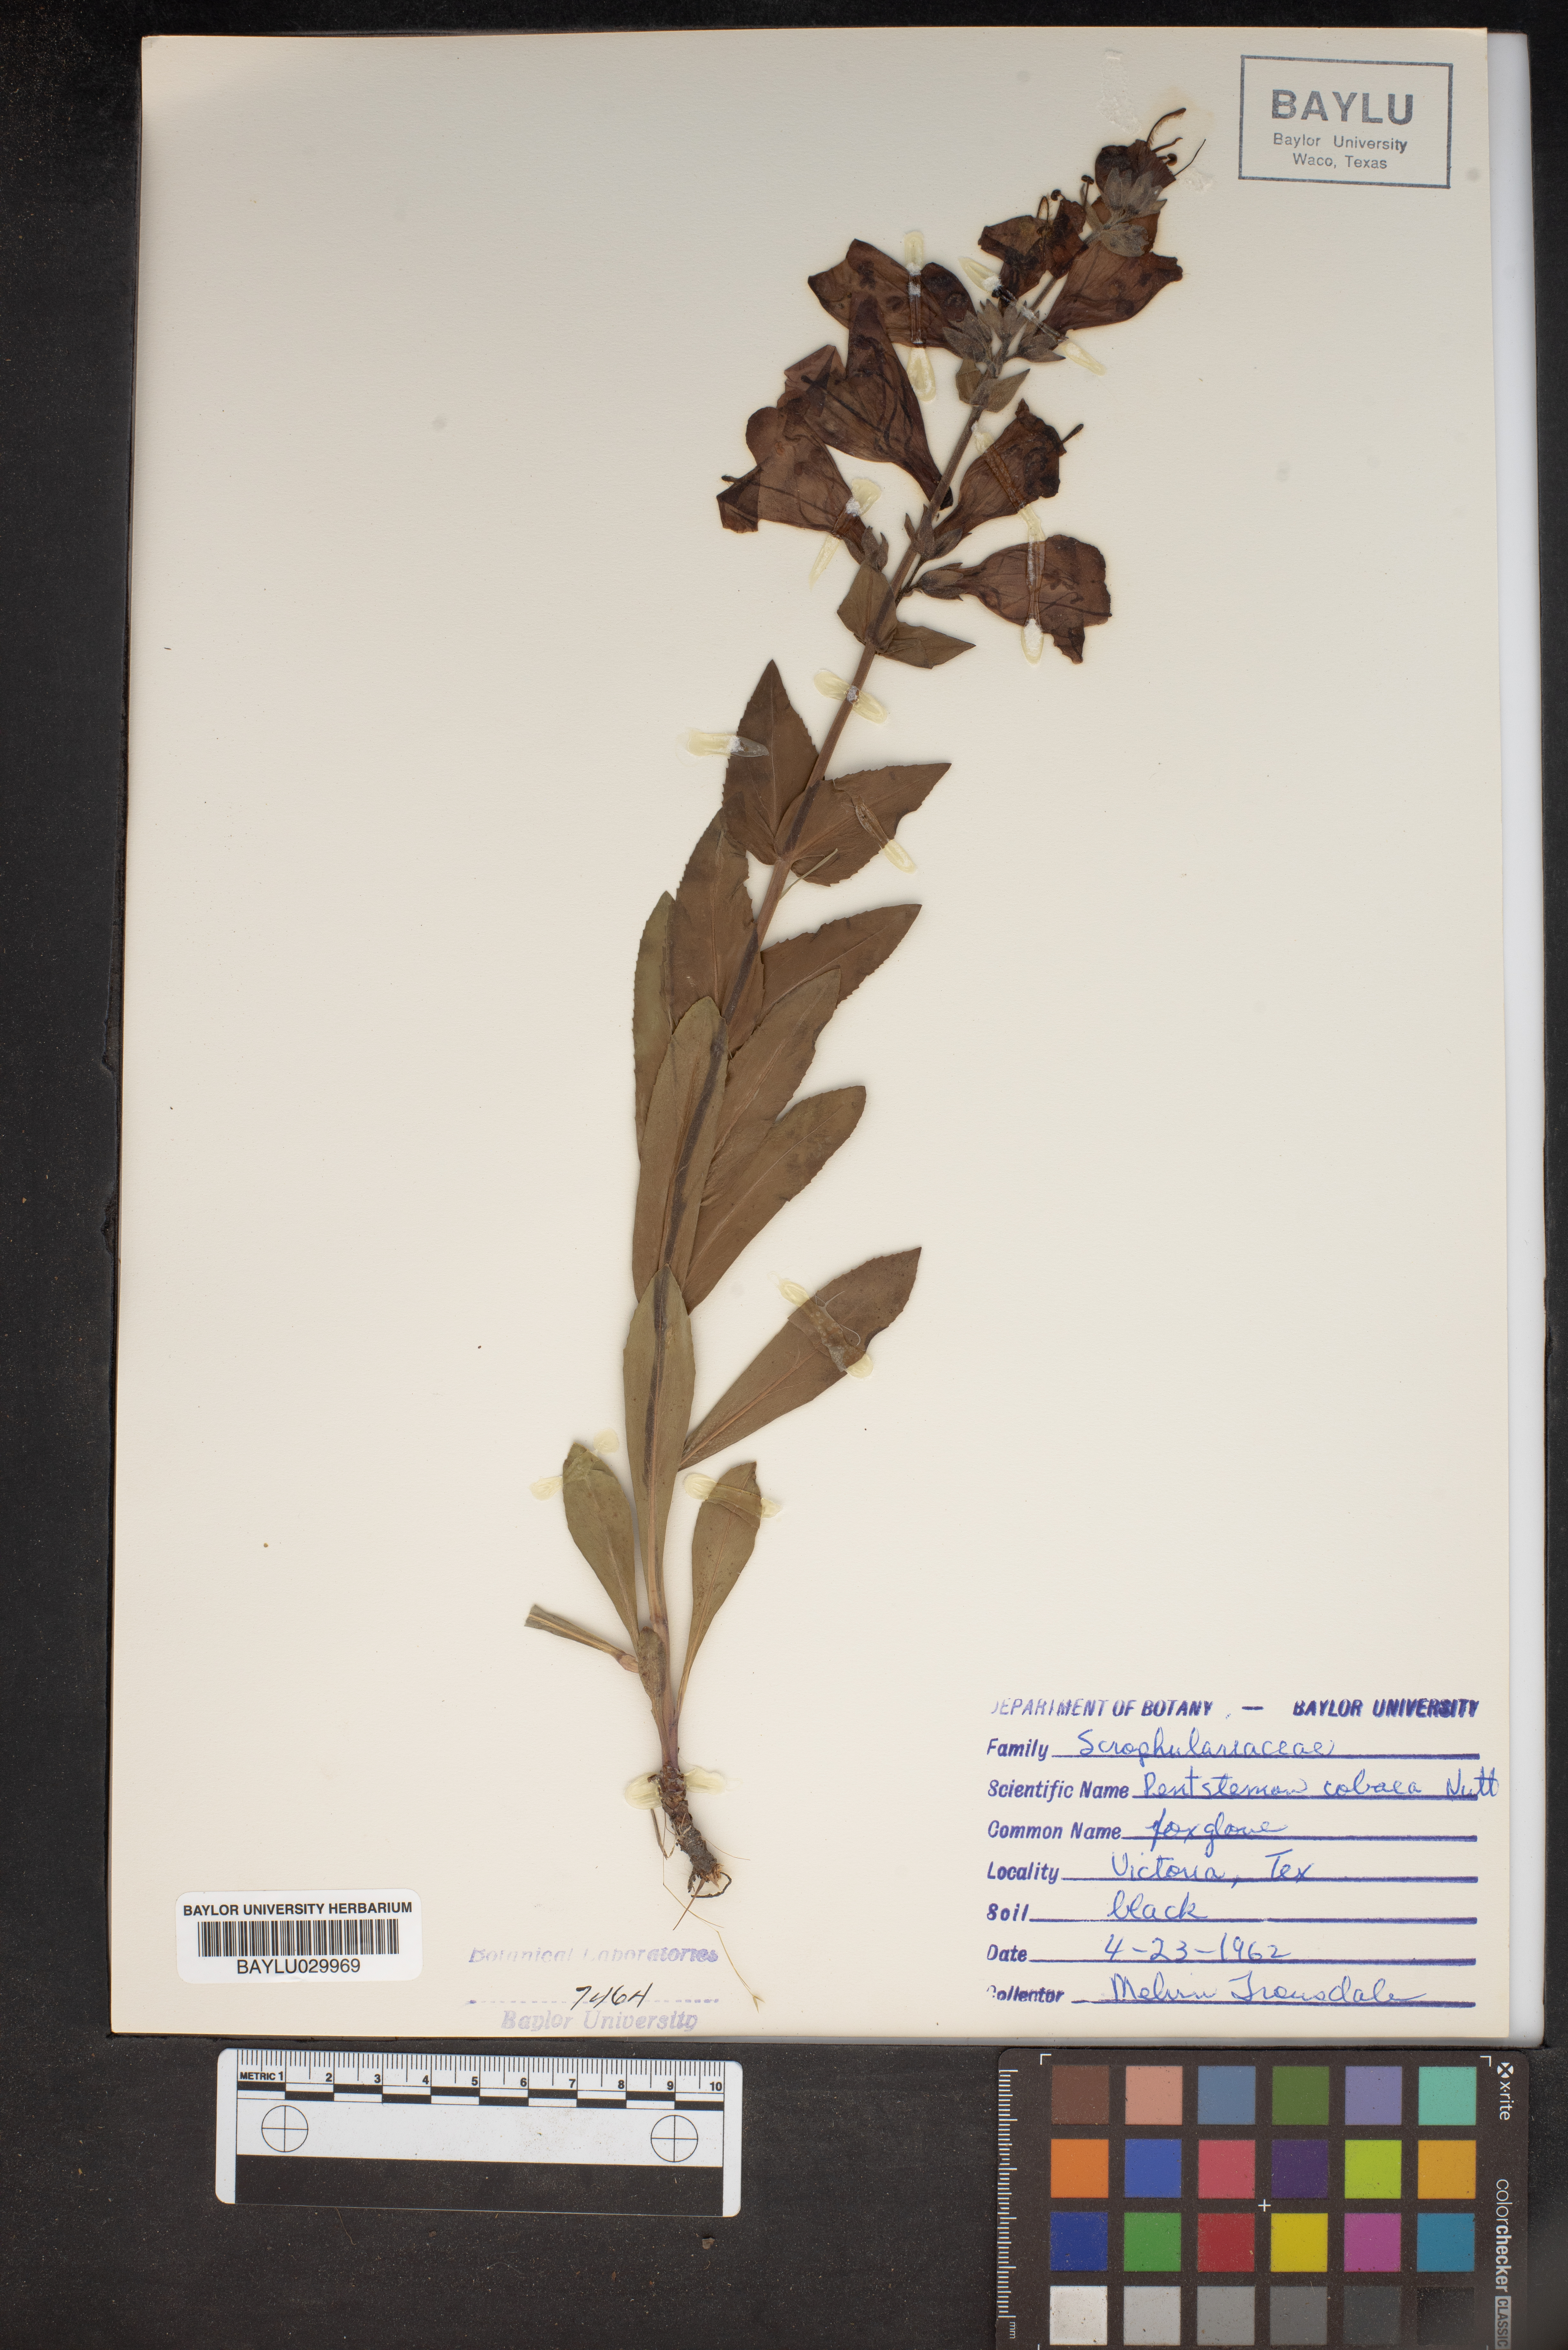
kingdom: Plantae
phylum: Tracheophyta
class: Magnoliopsida
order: Lamiales
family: Plantaginaceae
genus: Penstemon
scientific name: Penstemon cobaea
